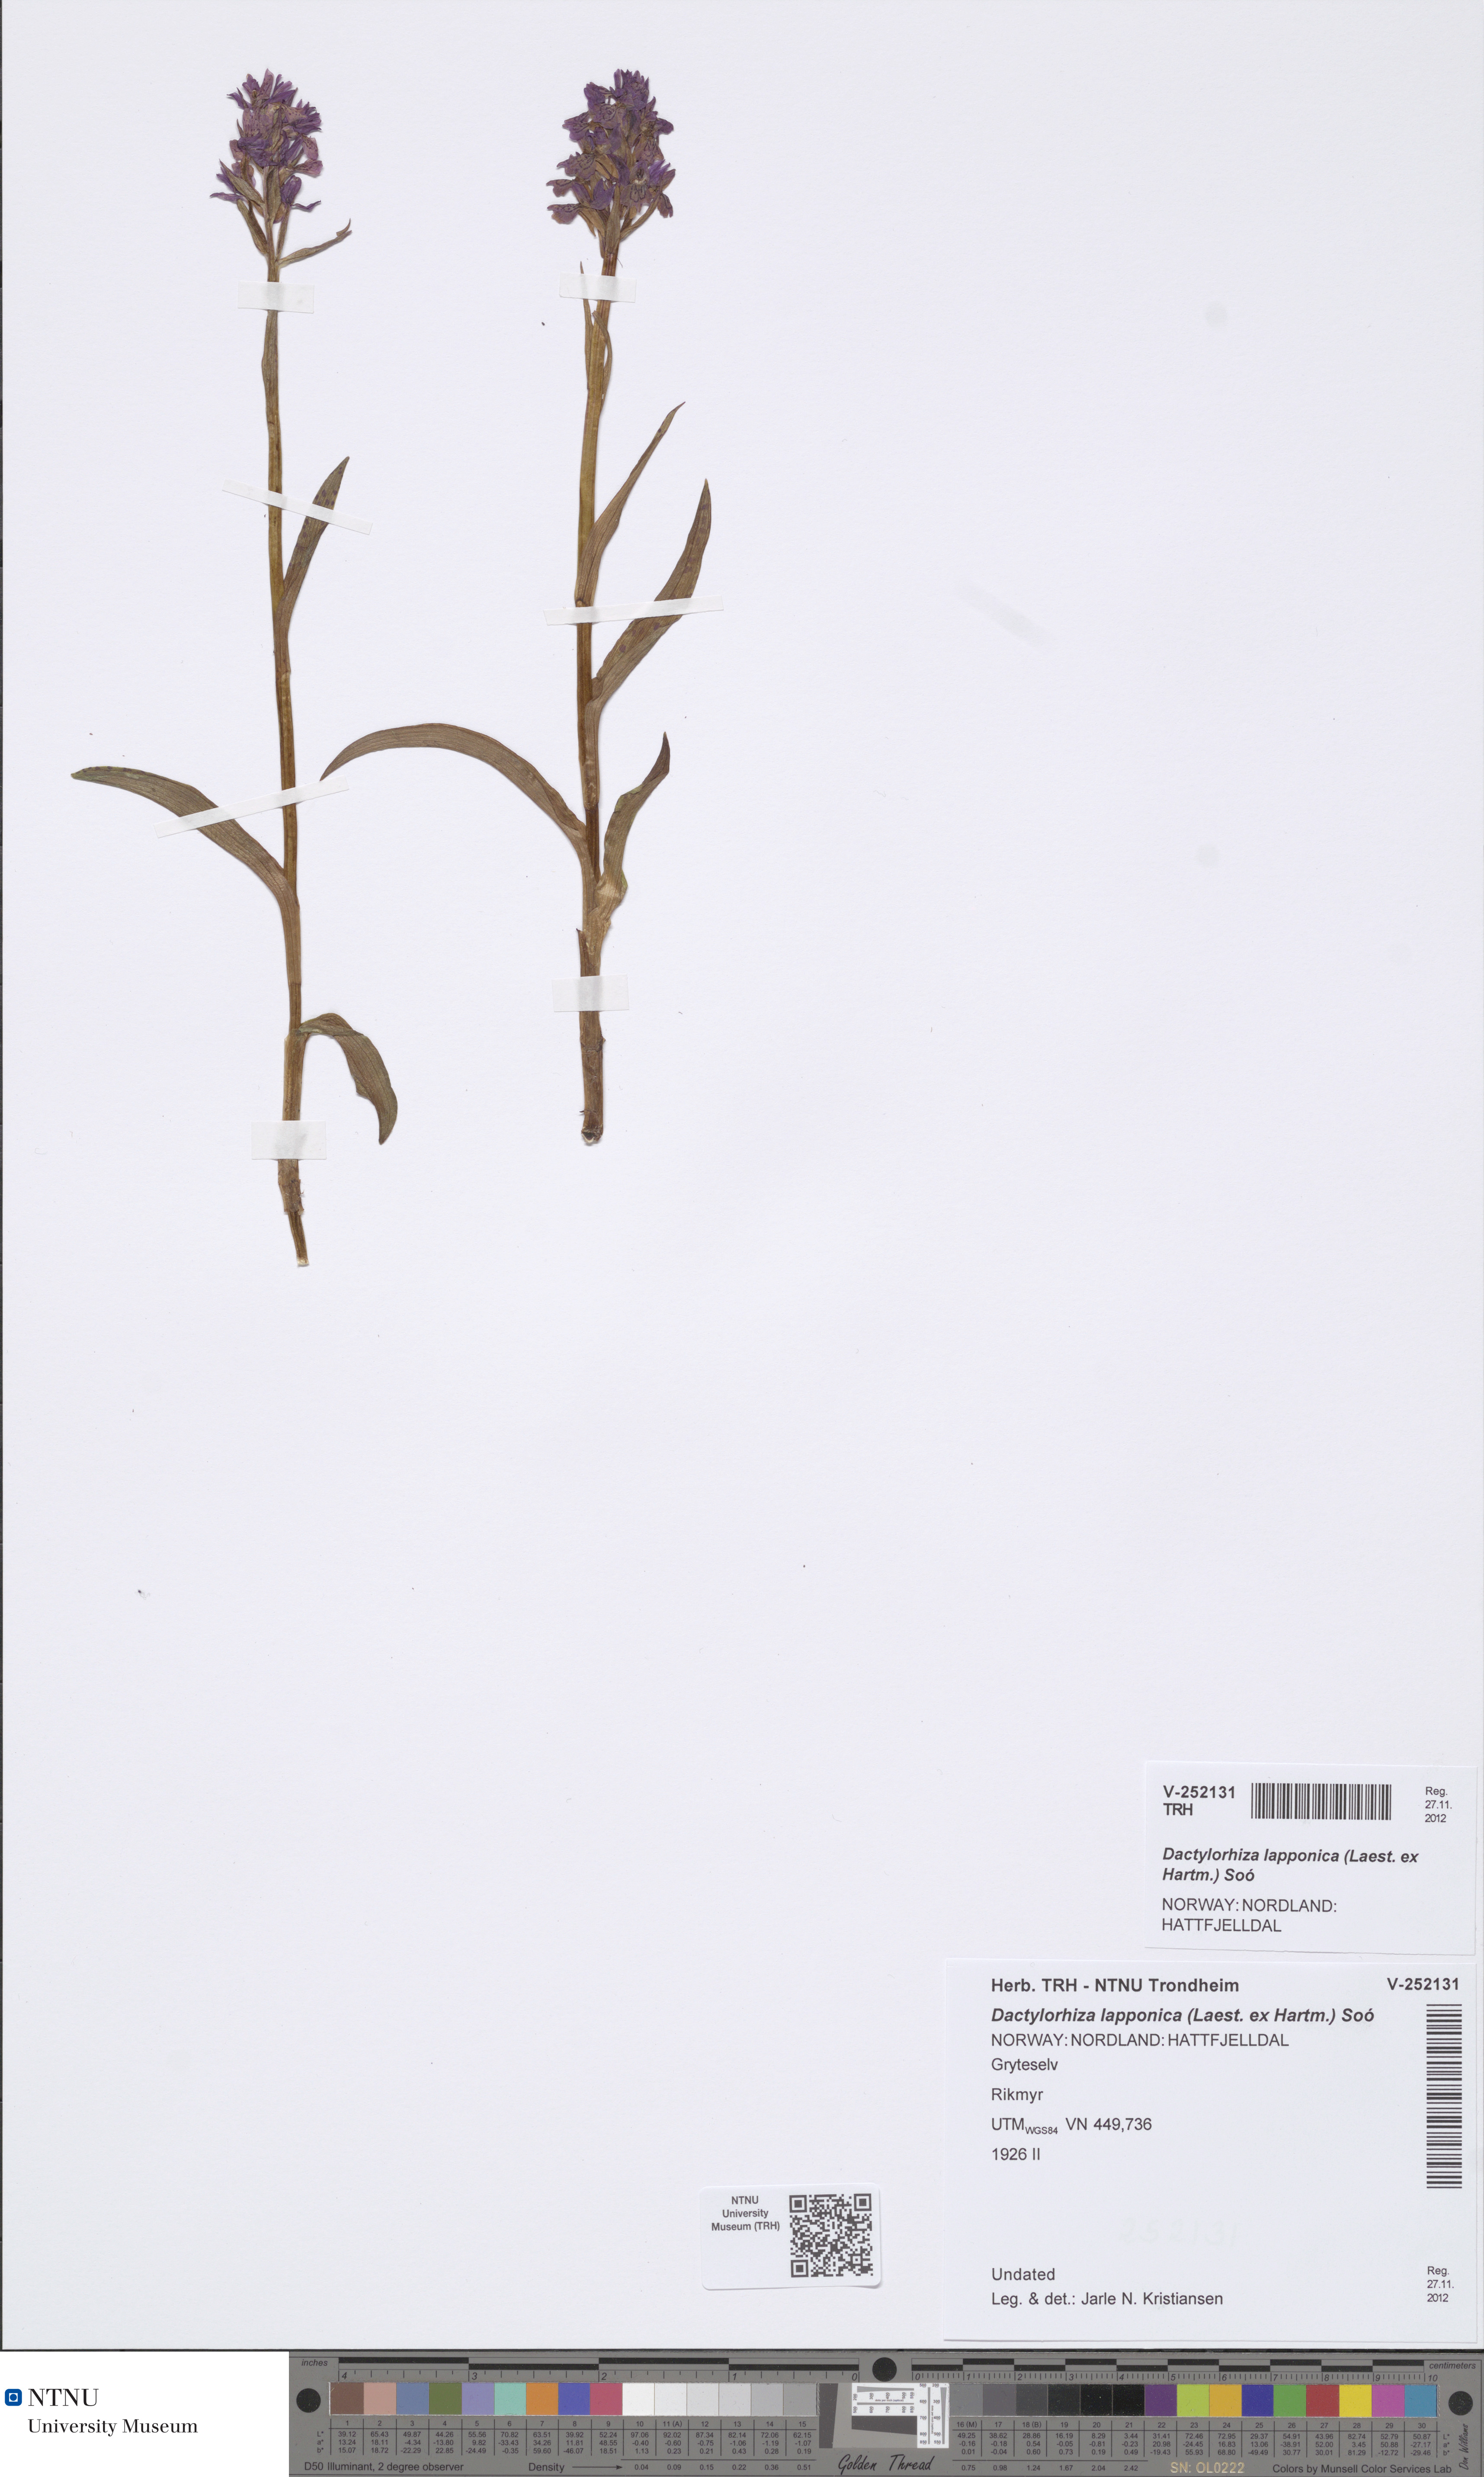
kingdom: Plantae
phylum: Tracheophyta
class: Liliopsida
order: Asparagales
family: Orchidaceae
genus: Dactylorhiza
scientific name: Dactylorhiza majalis
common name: Marsh orchid
